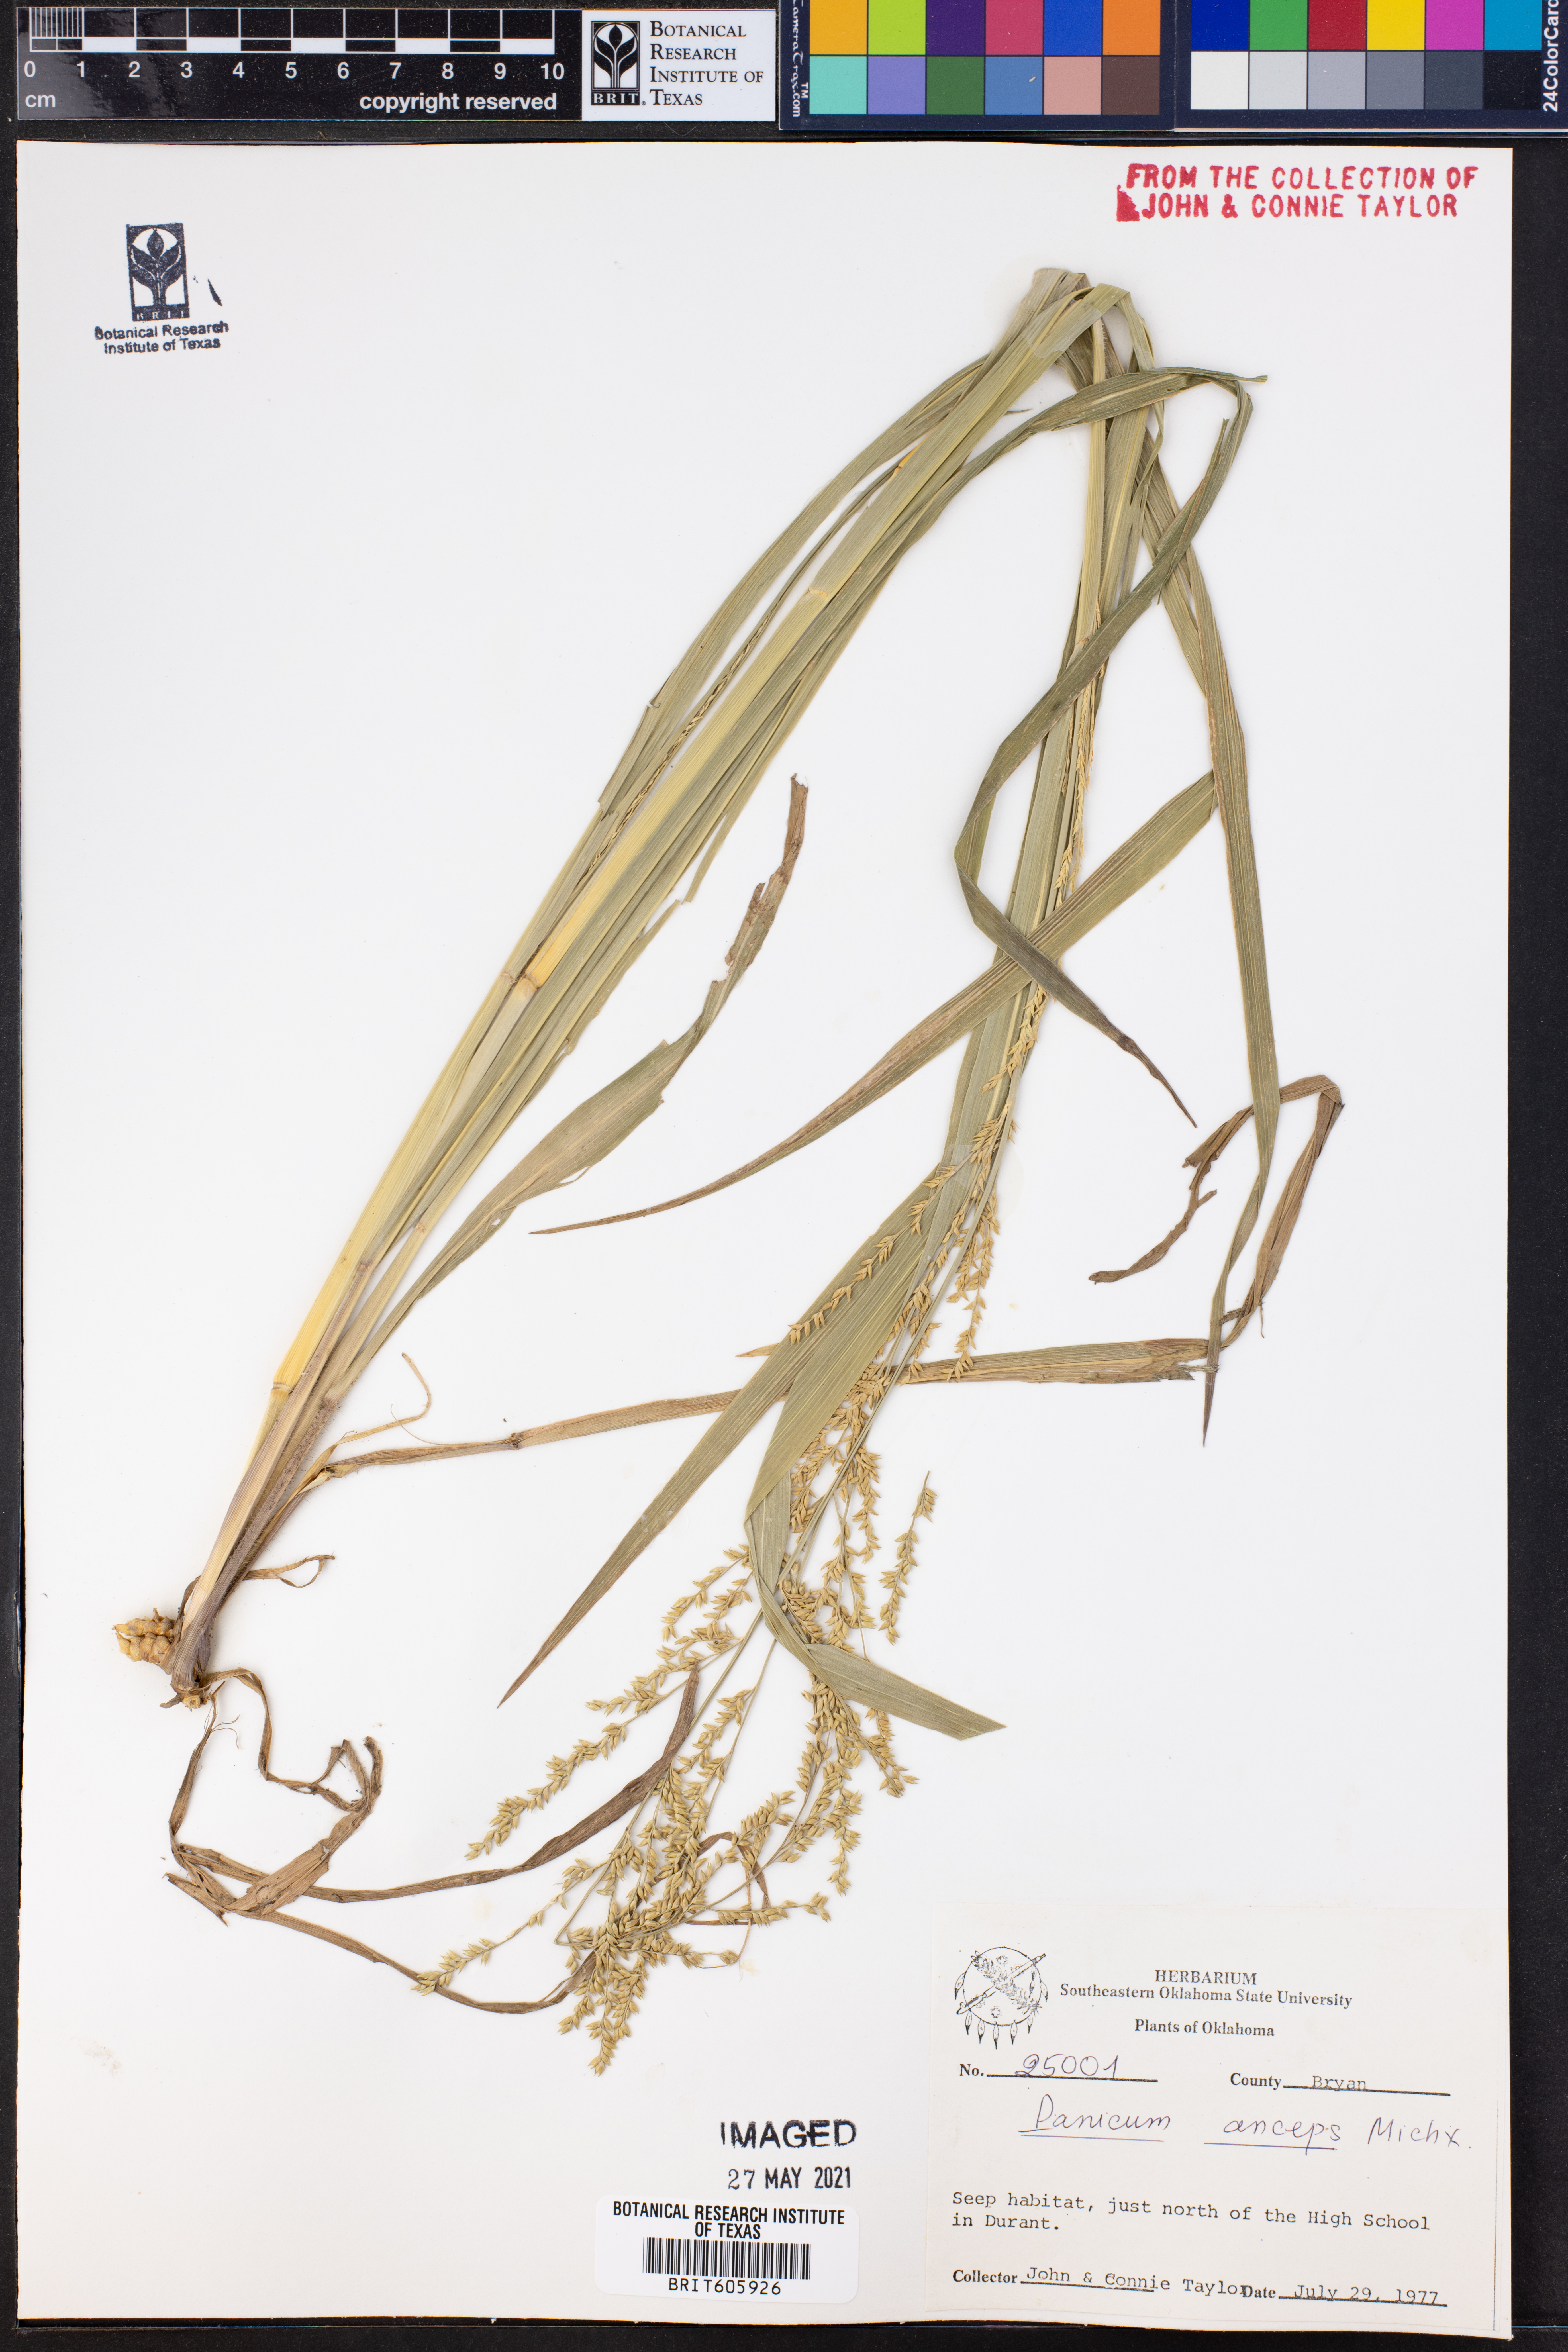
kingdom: Plantae
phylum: Tracheophyta
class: Liliopsida
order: Poales
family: Poaceae
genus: Coleataenia
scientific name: Coleataenia anceps
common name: Beaked panic grass
